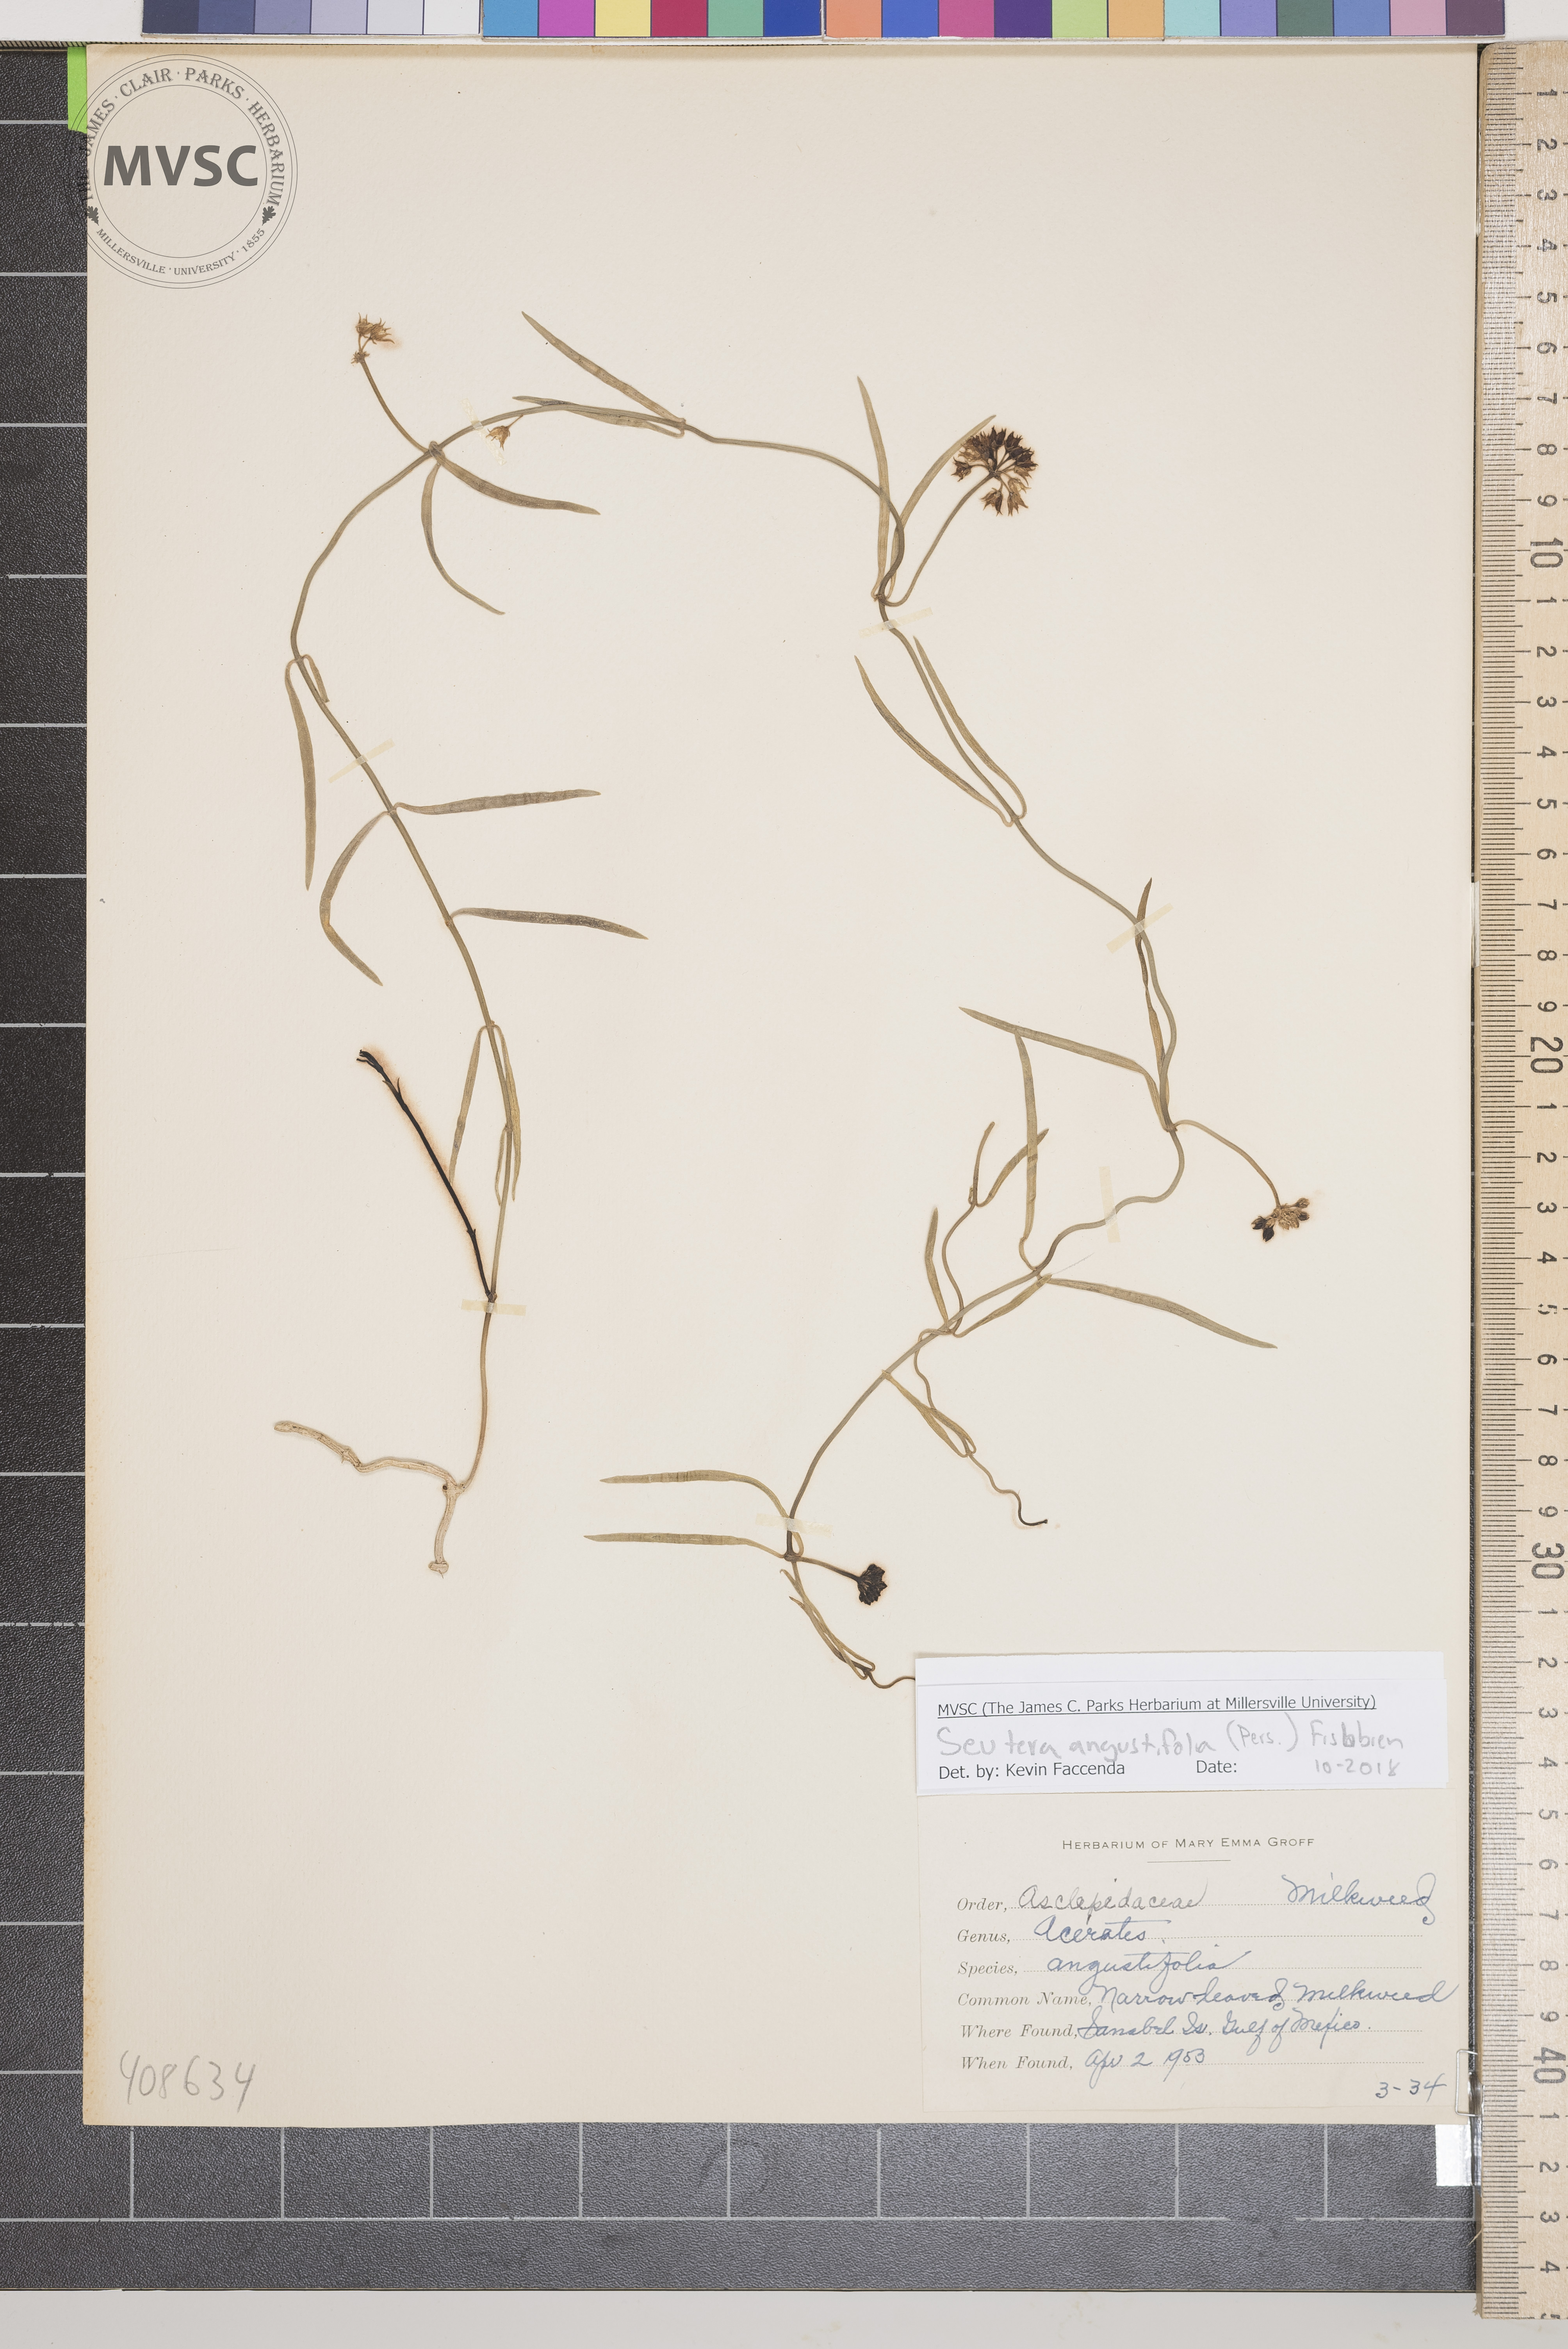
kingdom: Plantae
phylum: Tracheophyta
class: Magnoliopsida
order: Gentianales
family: Apocynaceae
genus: Pattalias
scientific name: Pattalias palustris
